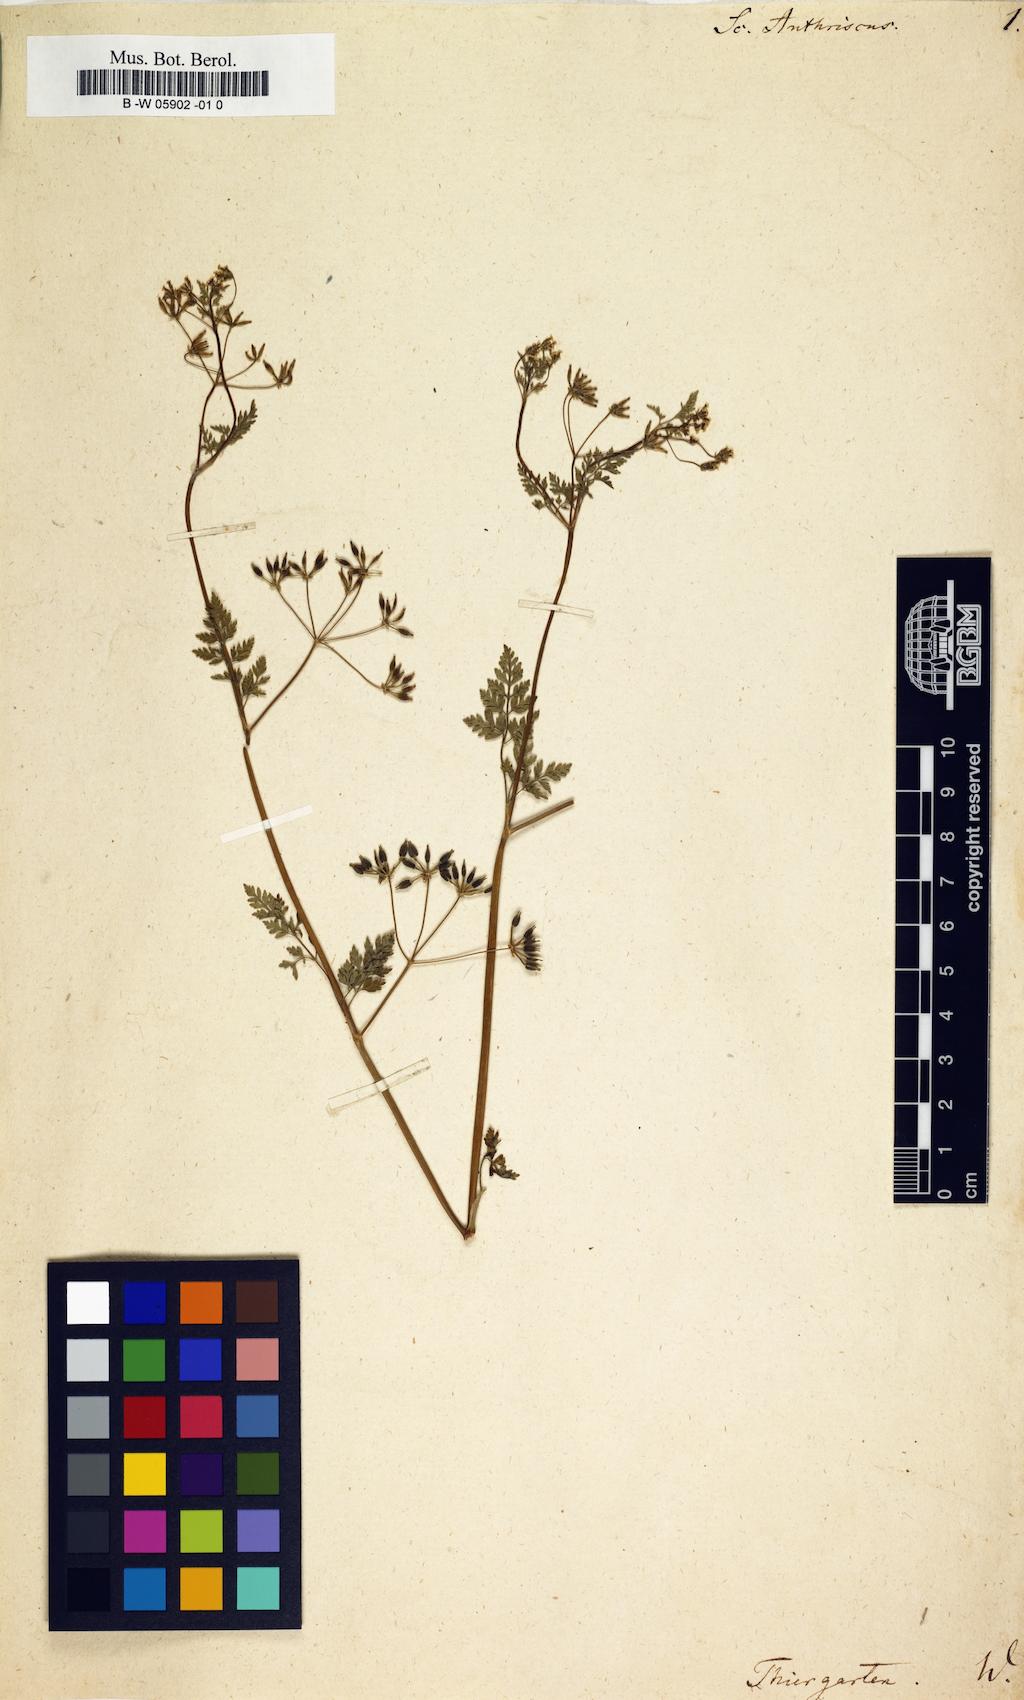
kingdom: Plantae
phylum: Tracheophyta
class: Magnoliopsida
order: Apiales
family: Apiaceae
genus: Anthriscus
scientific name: Anthriscus caucalis
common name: Bur chervil
